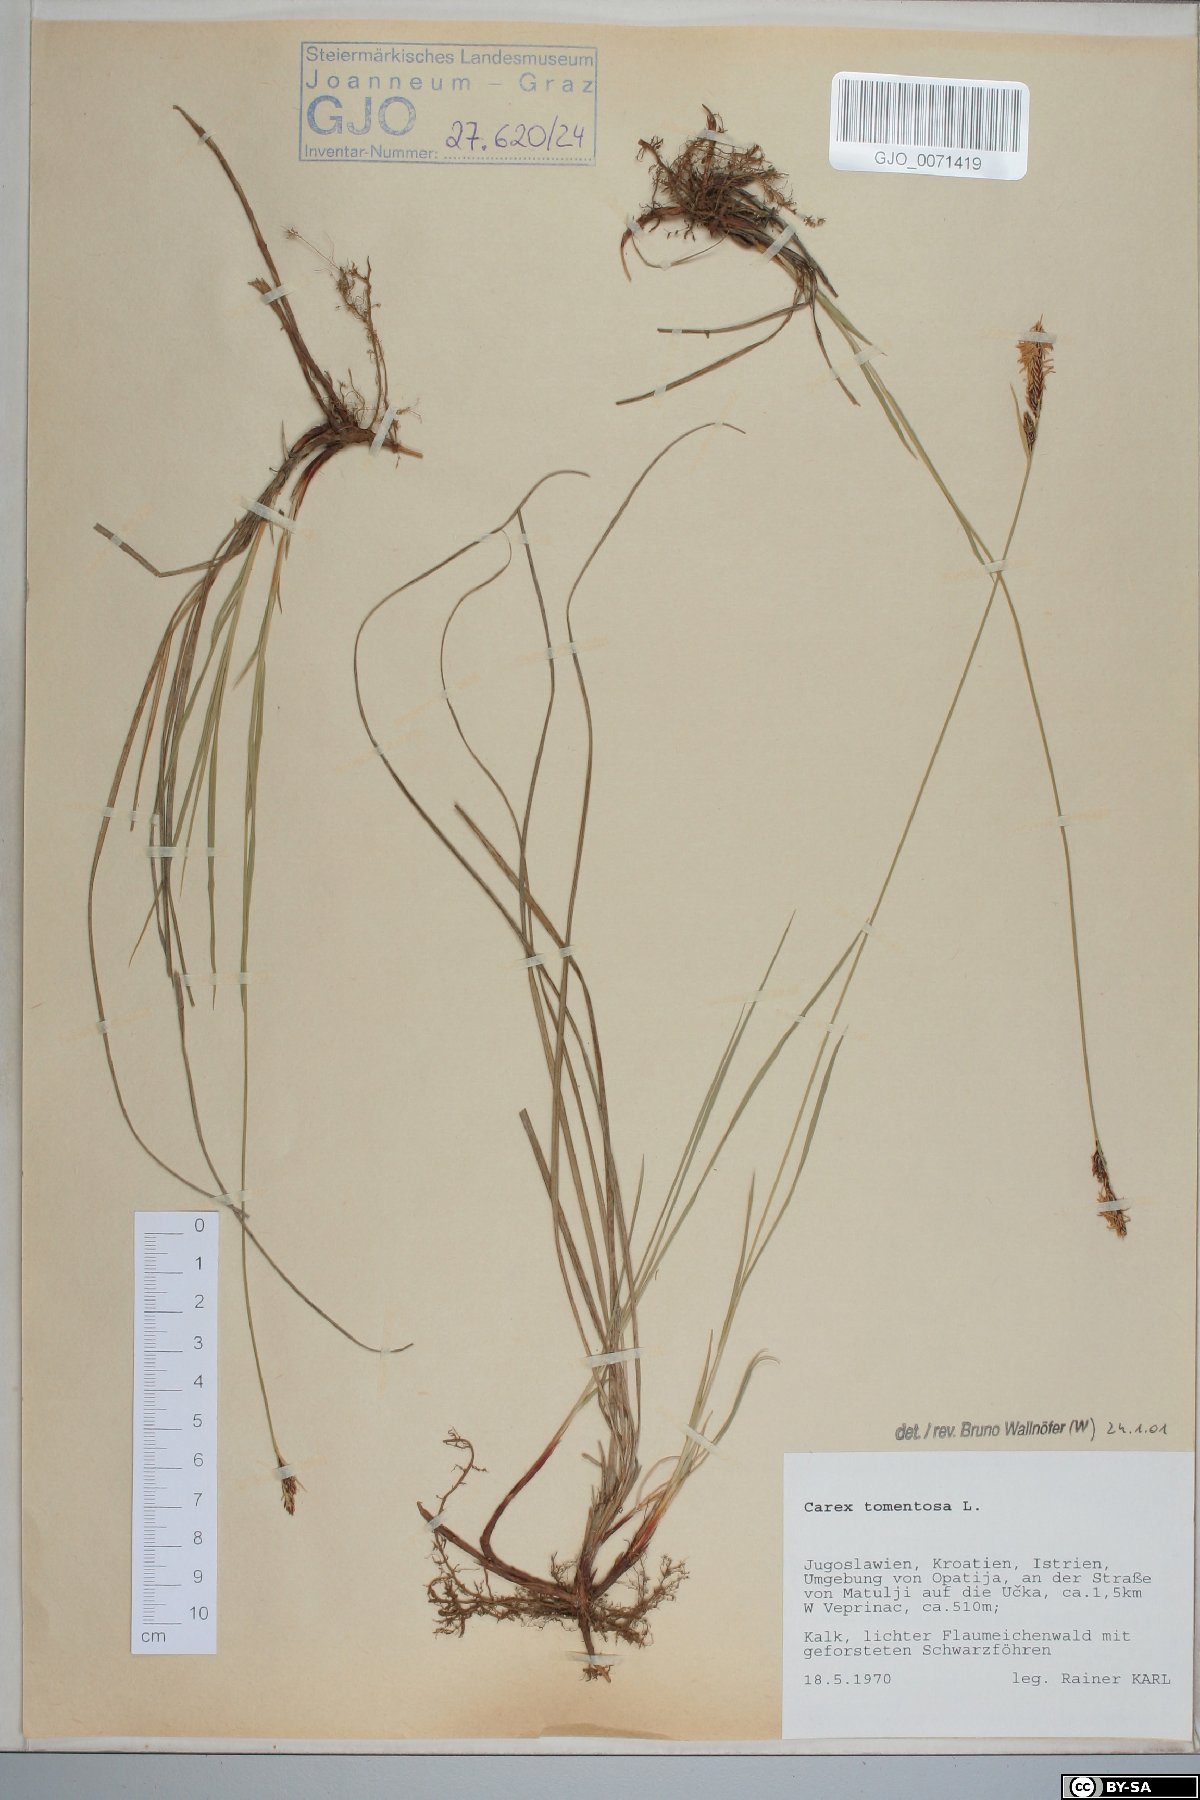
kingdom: Plantae
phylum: Tracheophyta
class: Liliopsida
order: Poales
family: Cyperaceae
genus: Carex
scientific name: Carex tomentosa
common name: Downy-fruited sedge
